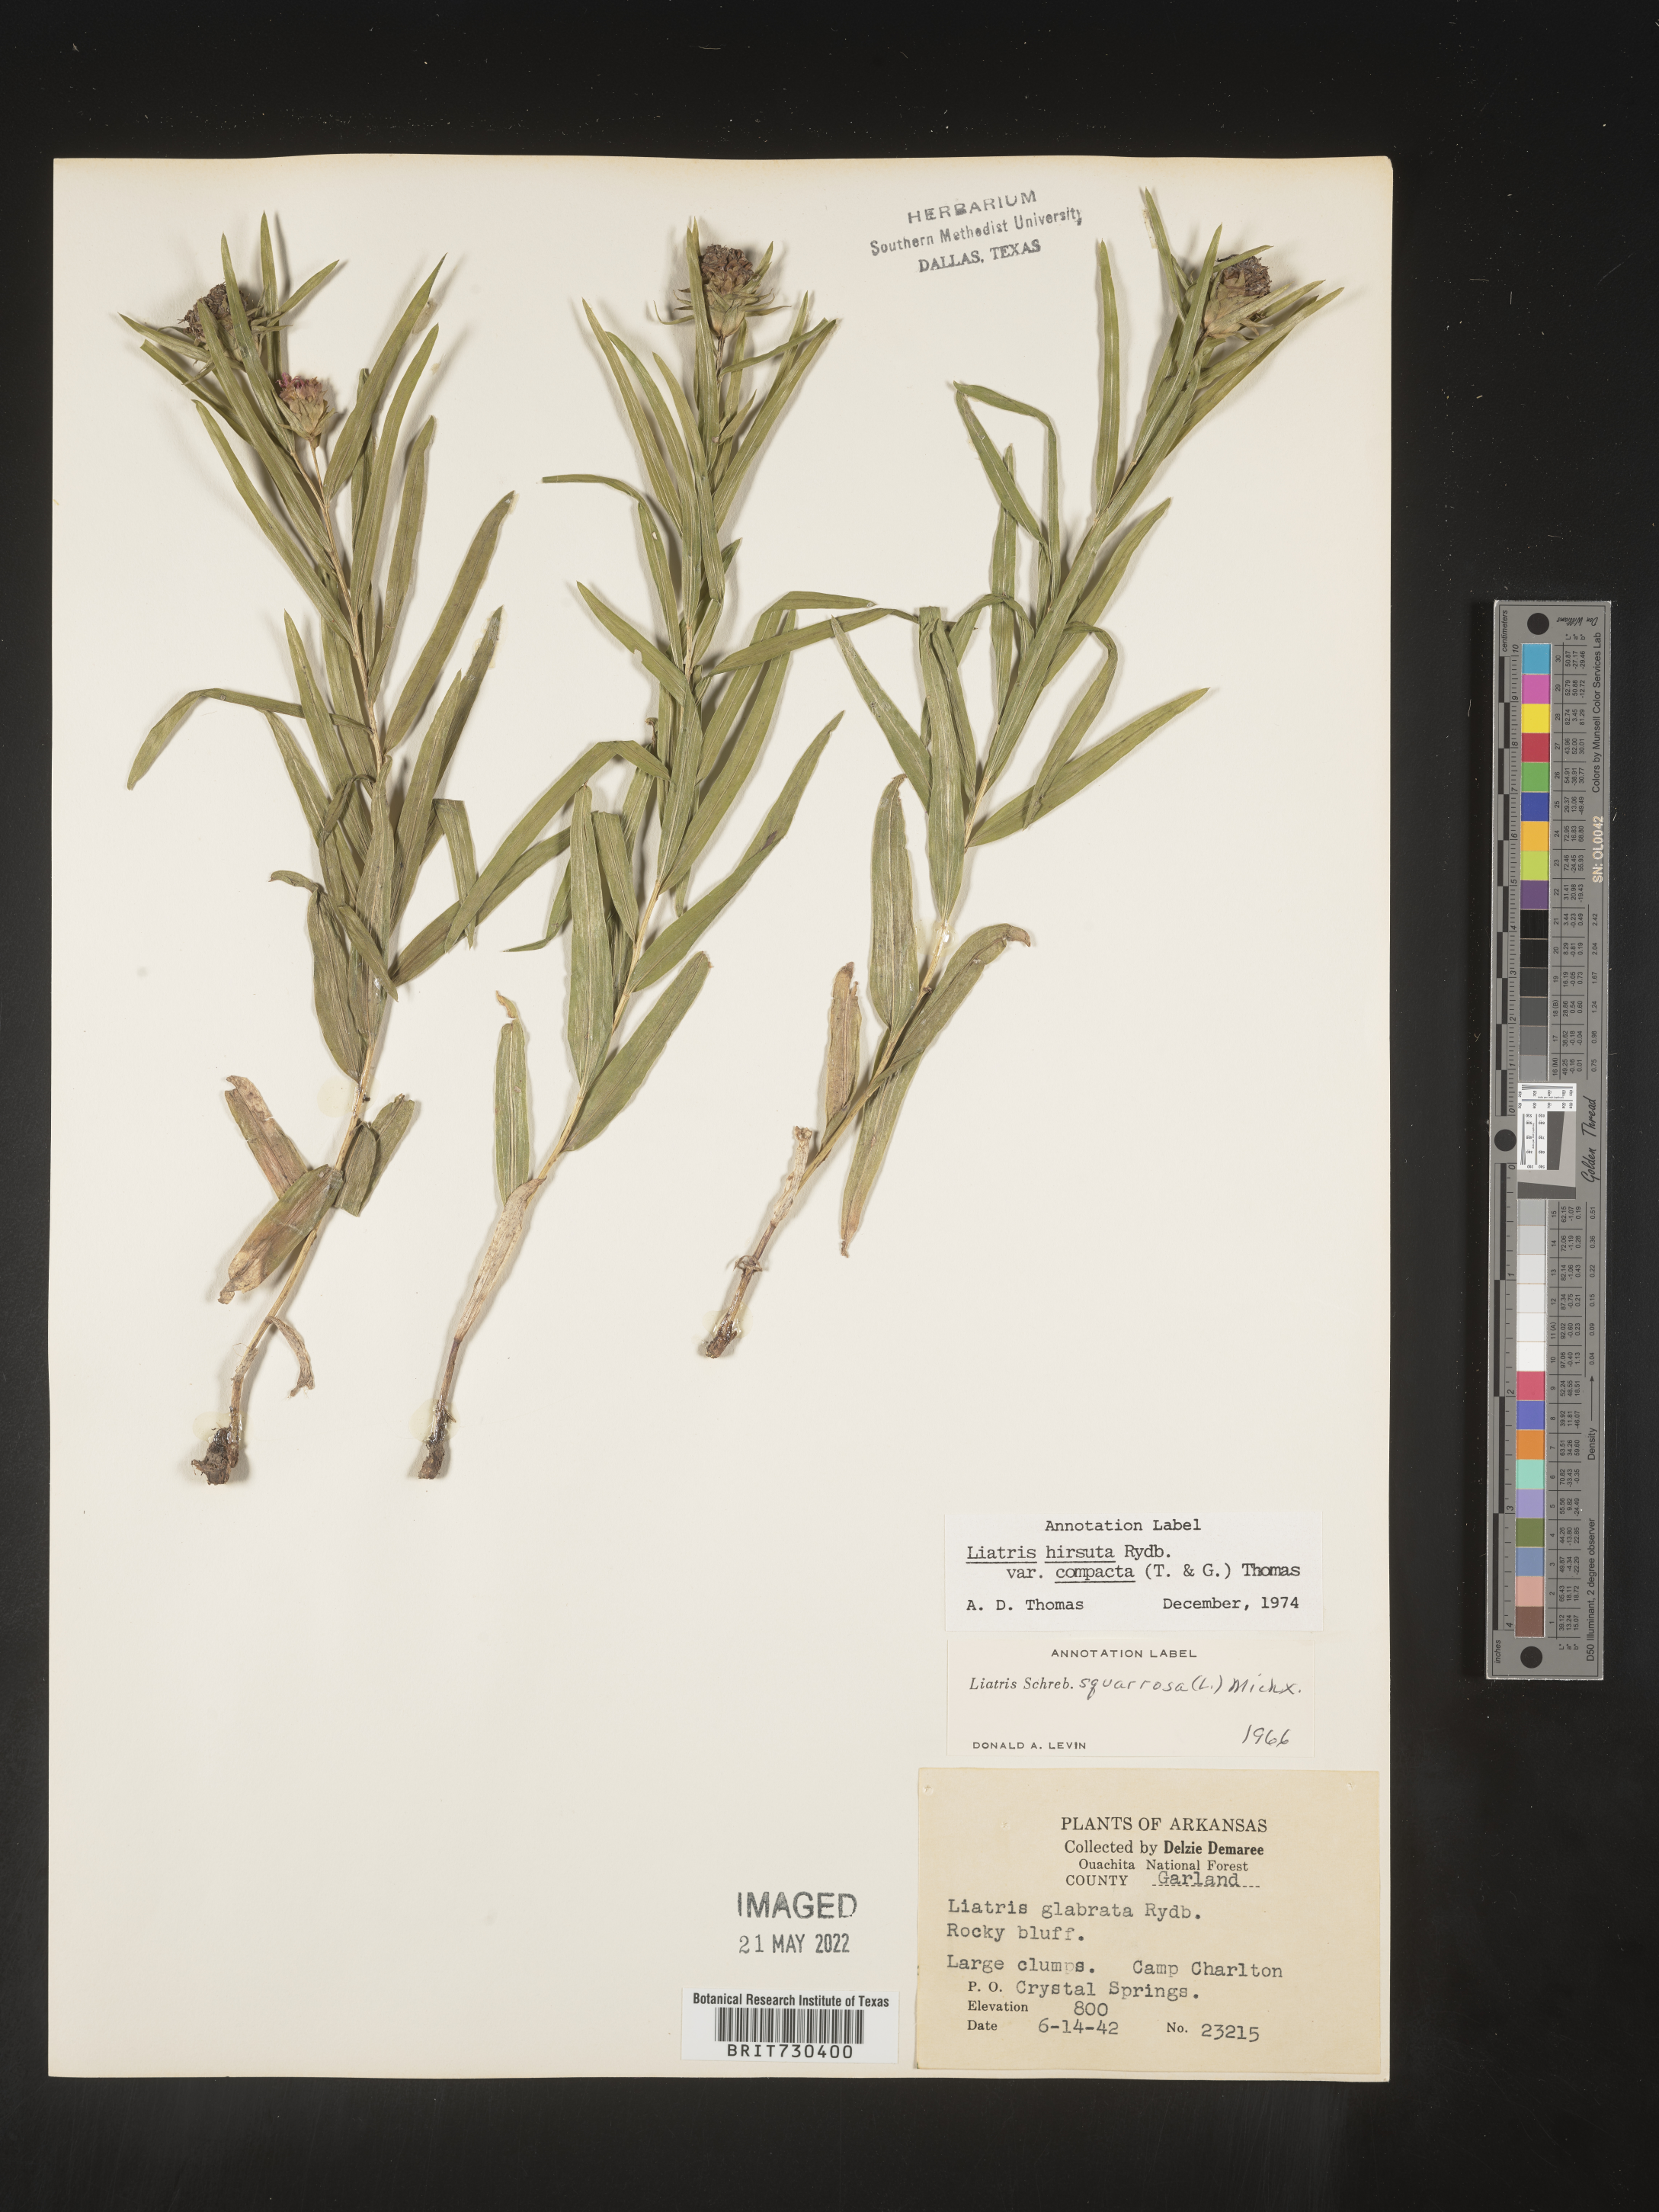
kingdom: Plantae
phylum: Tracheophyta
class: Magnoliopsida
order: Asterales
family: Asteraceae
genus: Liatris
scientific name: Liatris compacta
